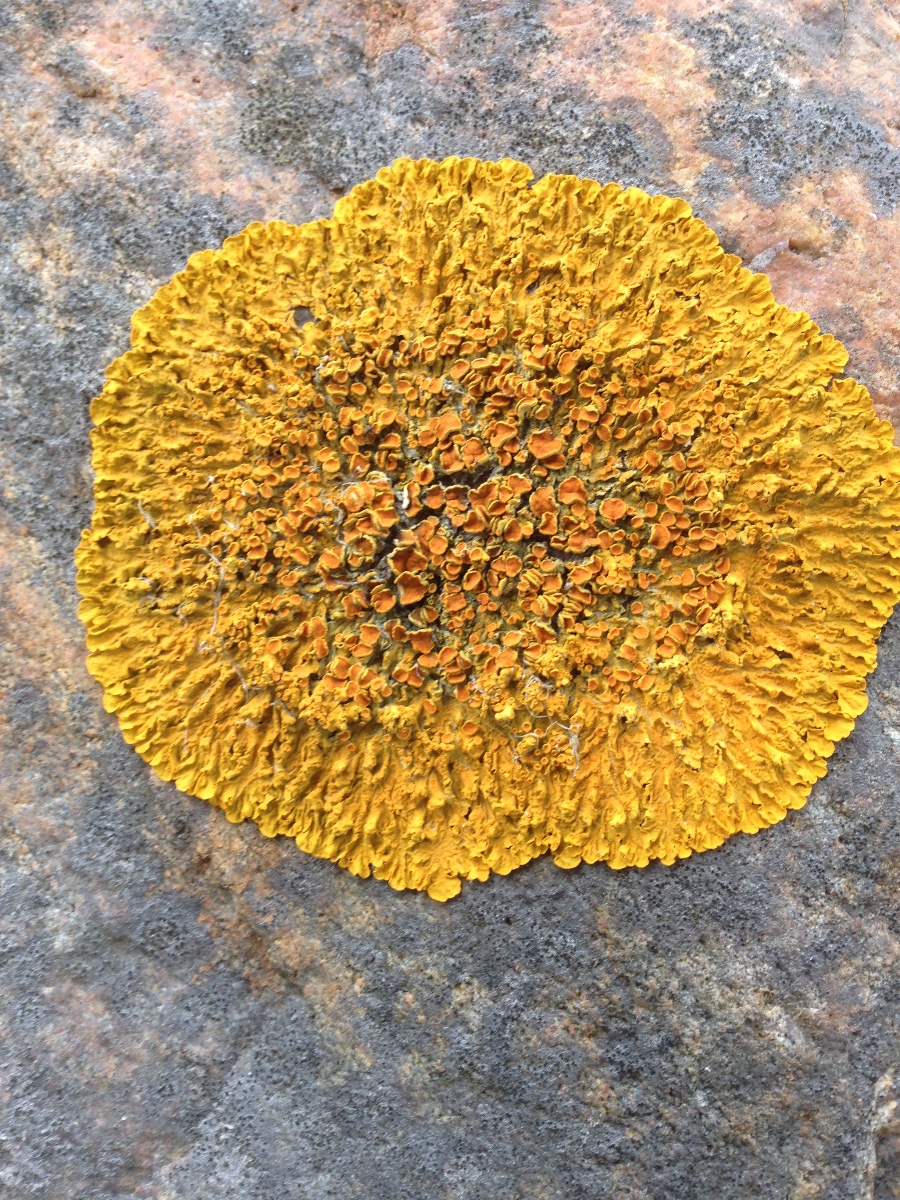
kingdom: Fungi
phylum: Ascomycota
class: Lecanoromycetes
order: Teloschistales
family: Teloschistaceae
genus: Xanthoria
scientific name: Xanthoria parietina
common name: almindelig væggelav
